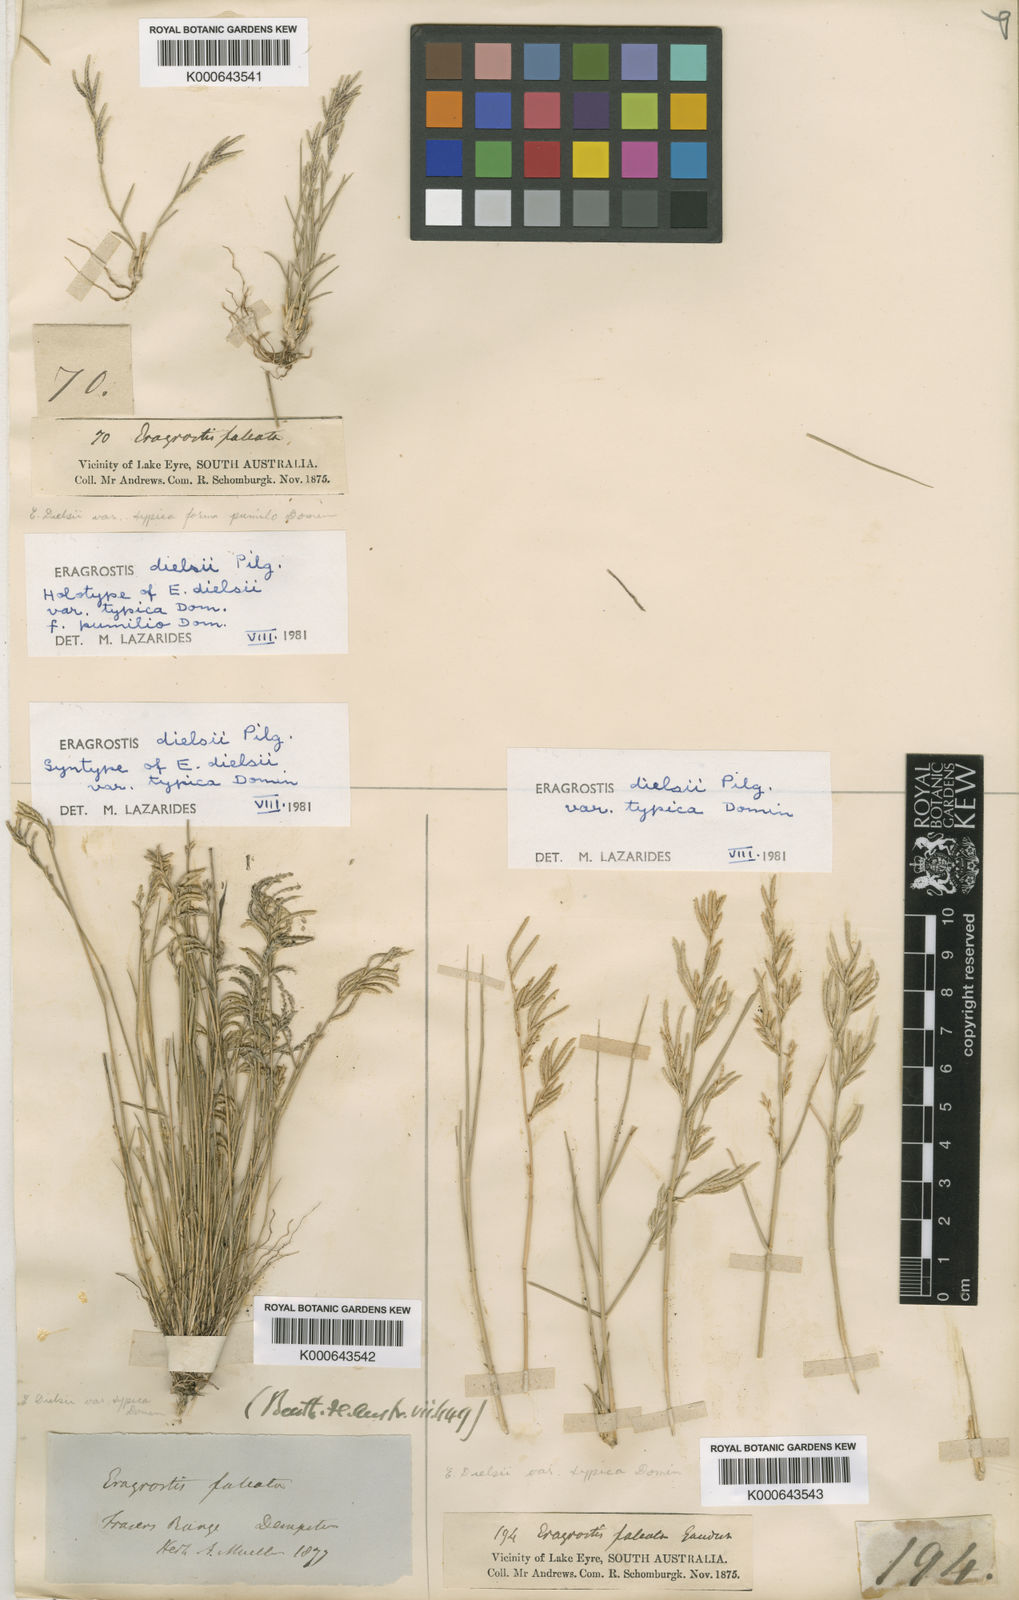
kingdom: Plantae
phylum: Tracheophyta
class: Liliopsida
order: Poales
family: Poaceae
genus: Eragrostis
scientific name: Eragrostis
